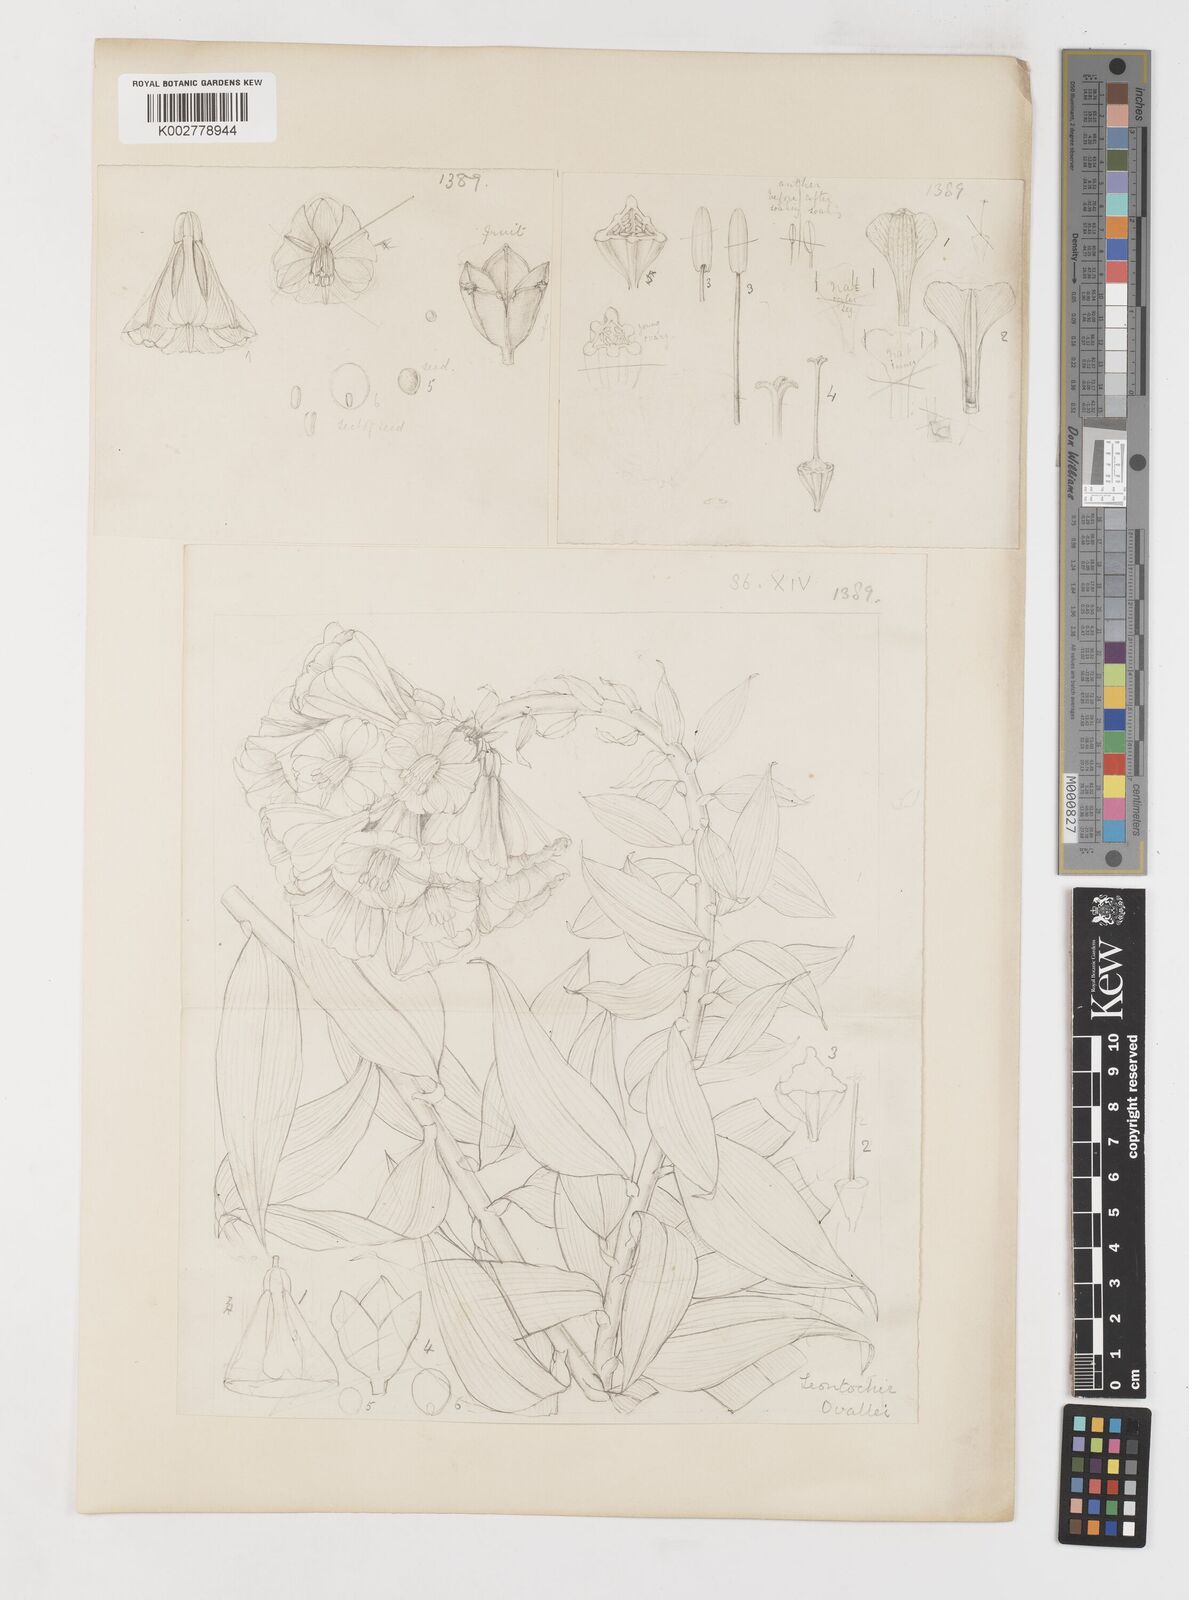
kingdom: Plantae
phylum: Tracheophyta
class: Liliopsida
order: Liliales
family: Alstroemeriaceae
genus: Bomarea
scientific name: Bomarea ovallei
